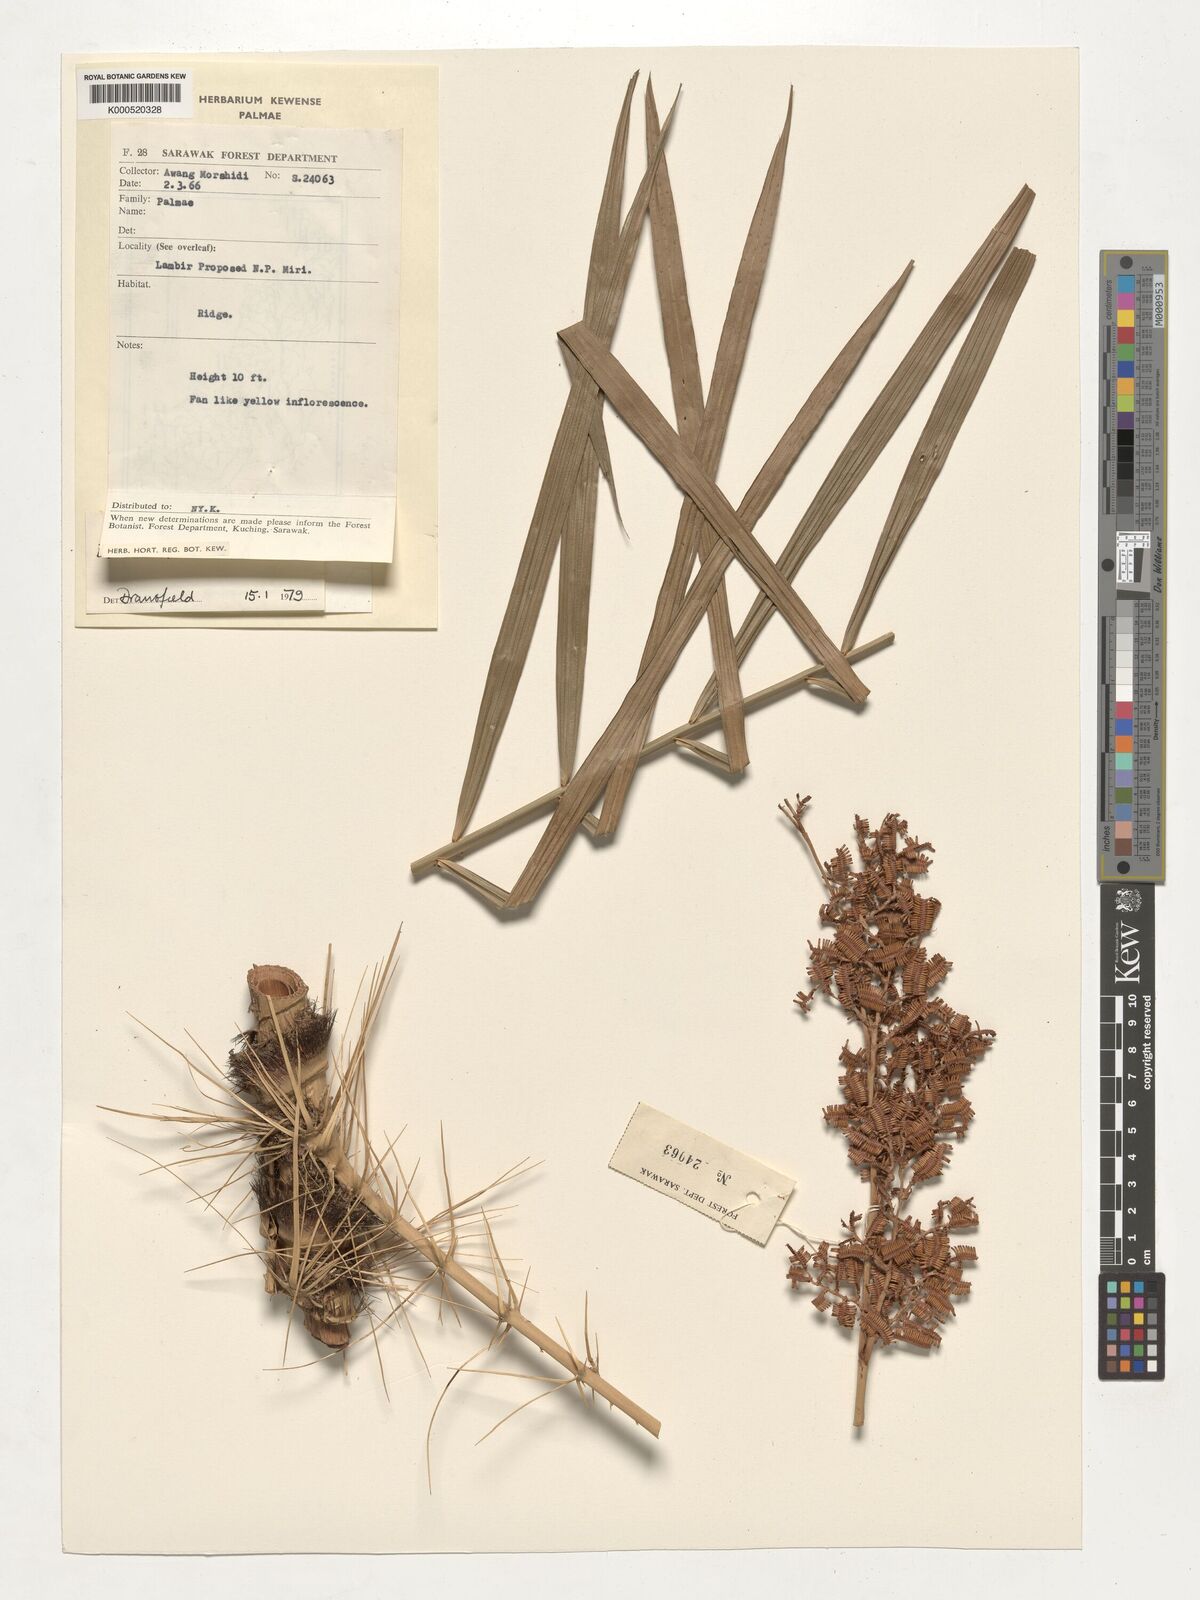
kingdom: Plantae
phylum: Tracheophyta
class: Liliopsida
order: Arecales
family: Arecaceae
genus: Calamus
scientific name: Calamus geniculatus
